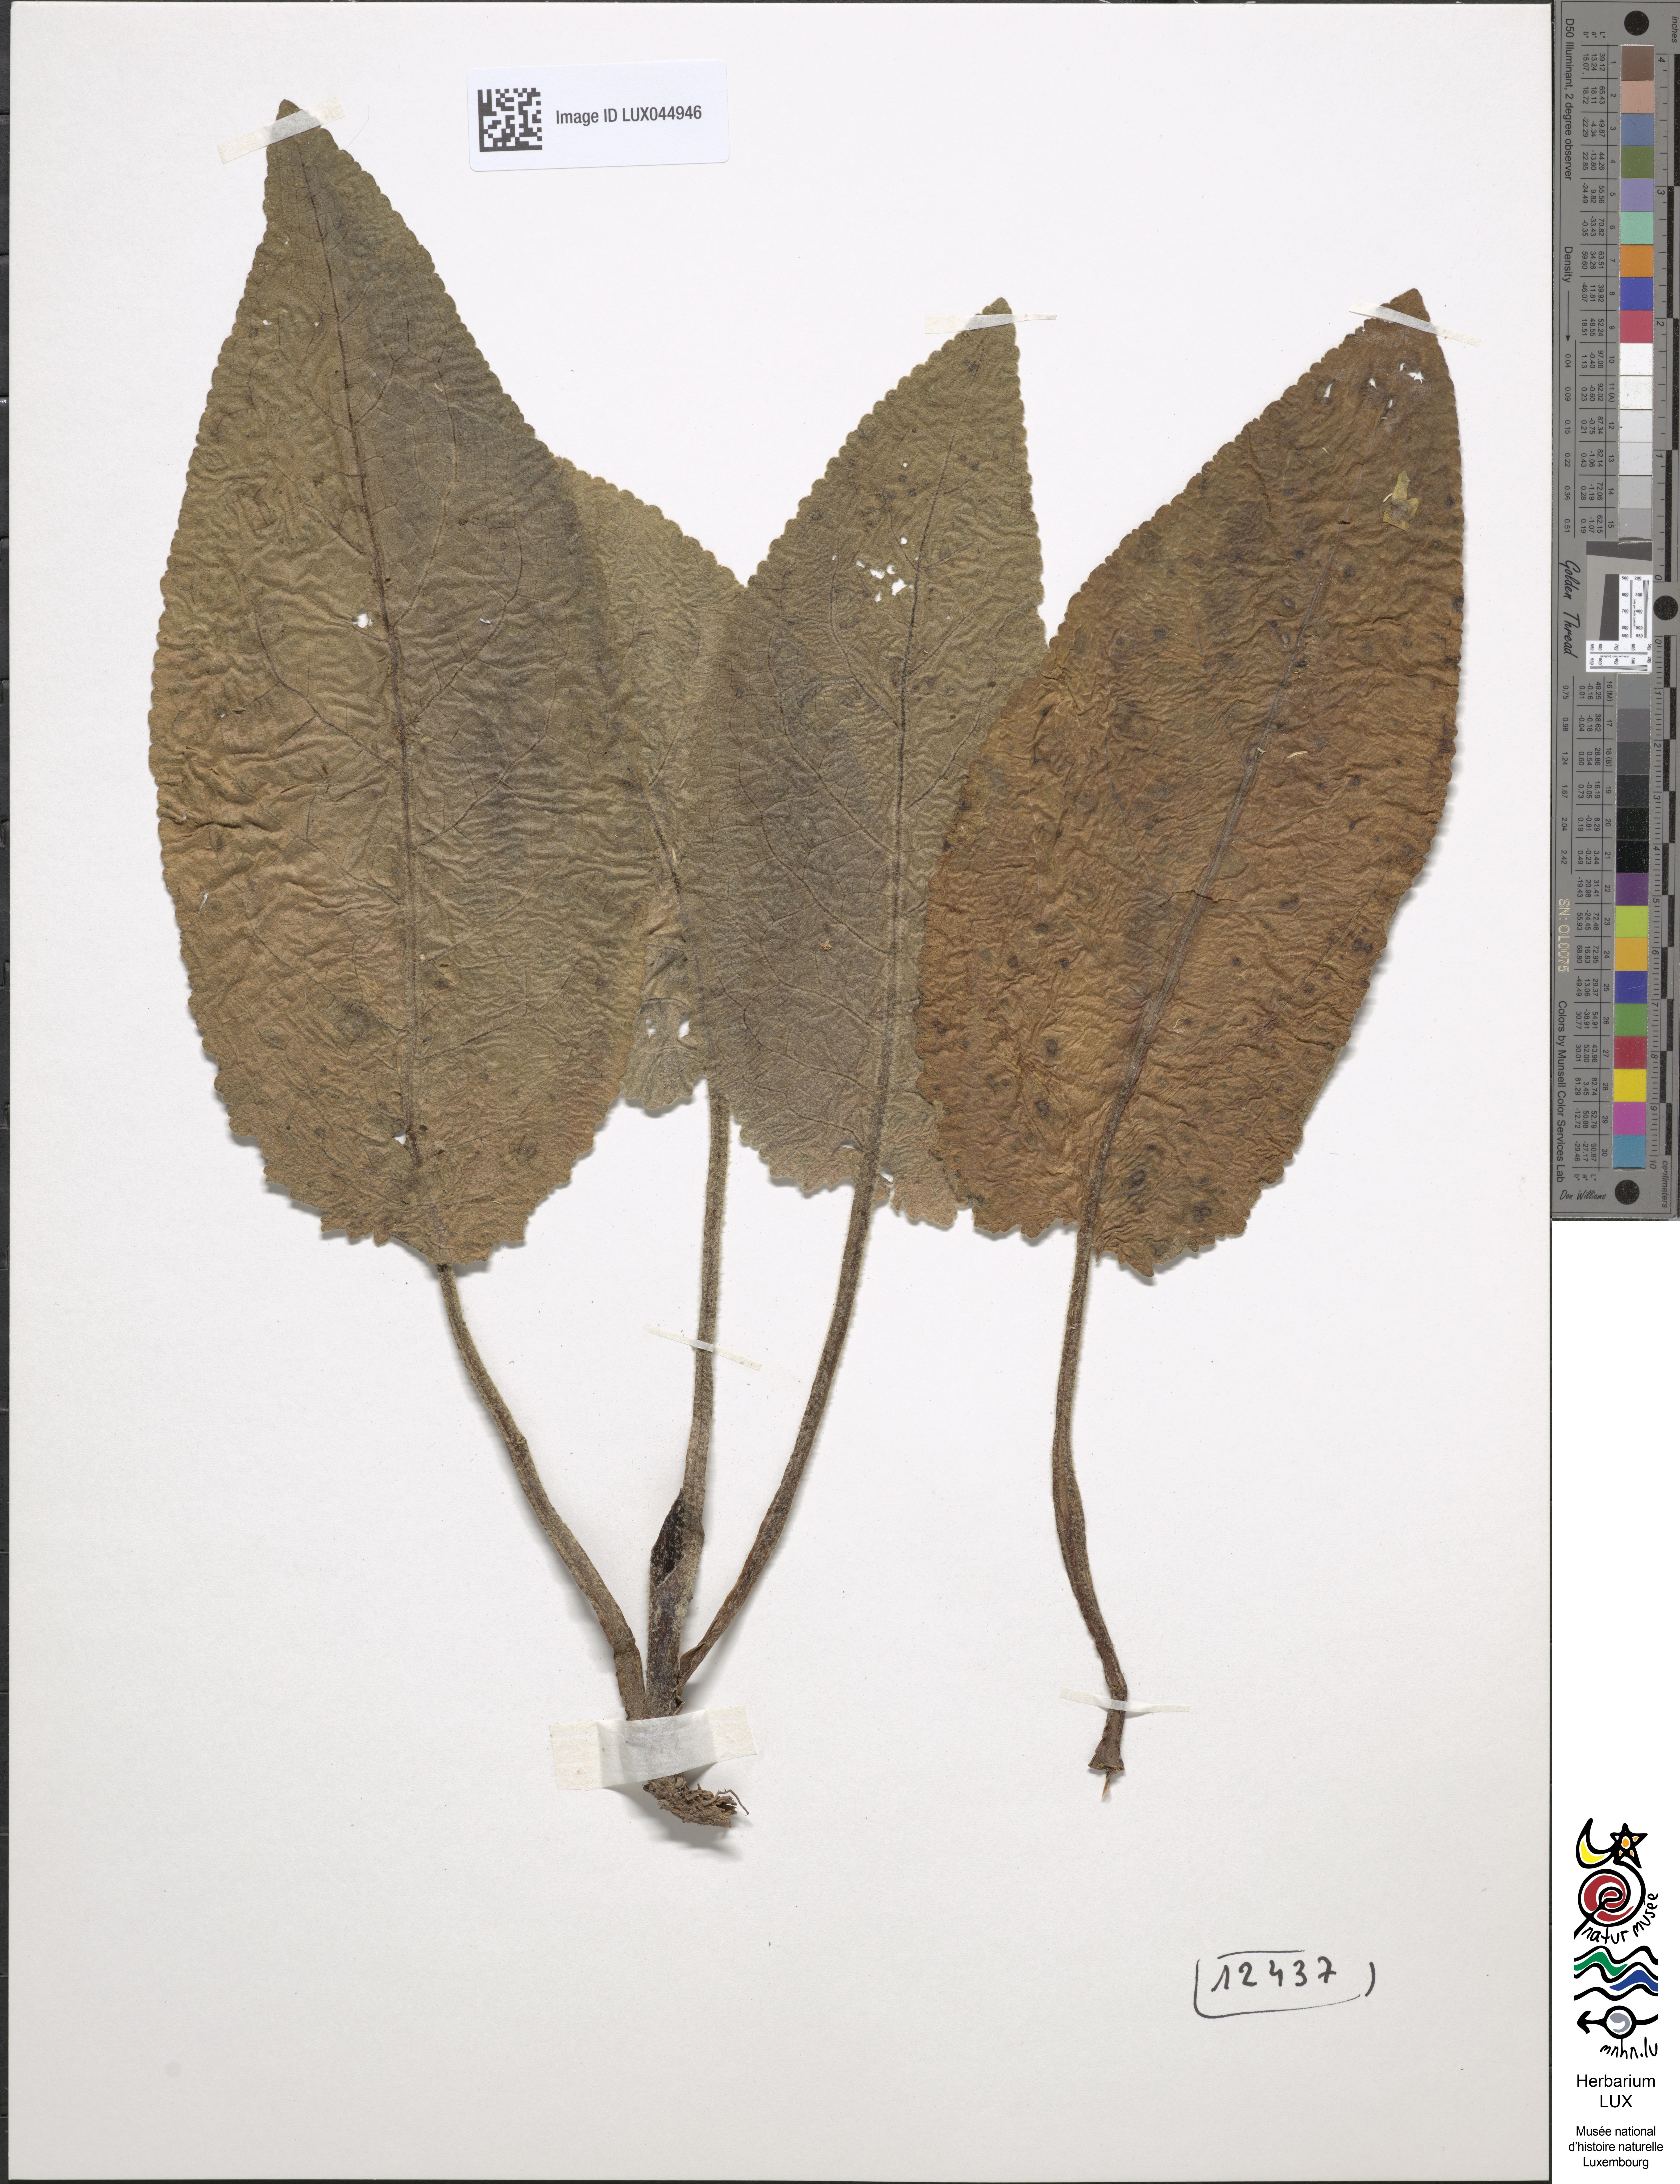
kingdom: Plantae
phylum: Tracheophyta
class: Magnoliopsida
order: Lamiales
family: Scrophulariaceae
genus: Verbascum
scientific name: Verbascum nigrum
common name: Dark mullein
